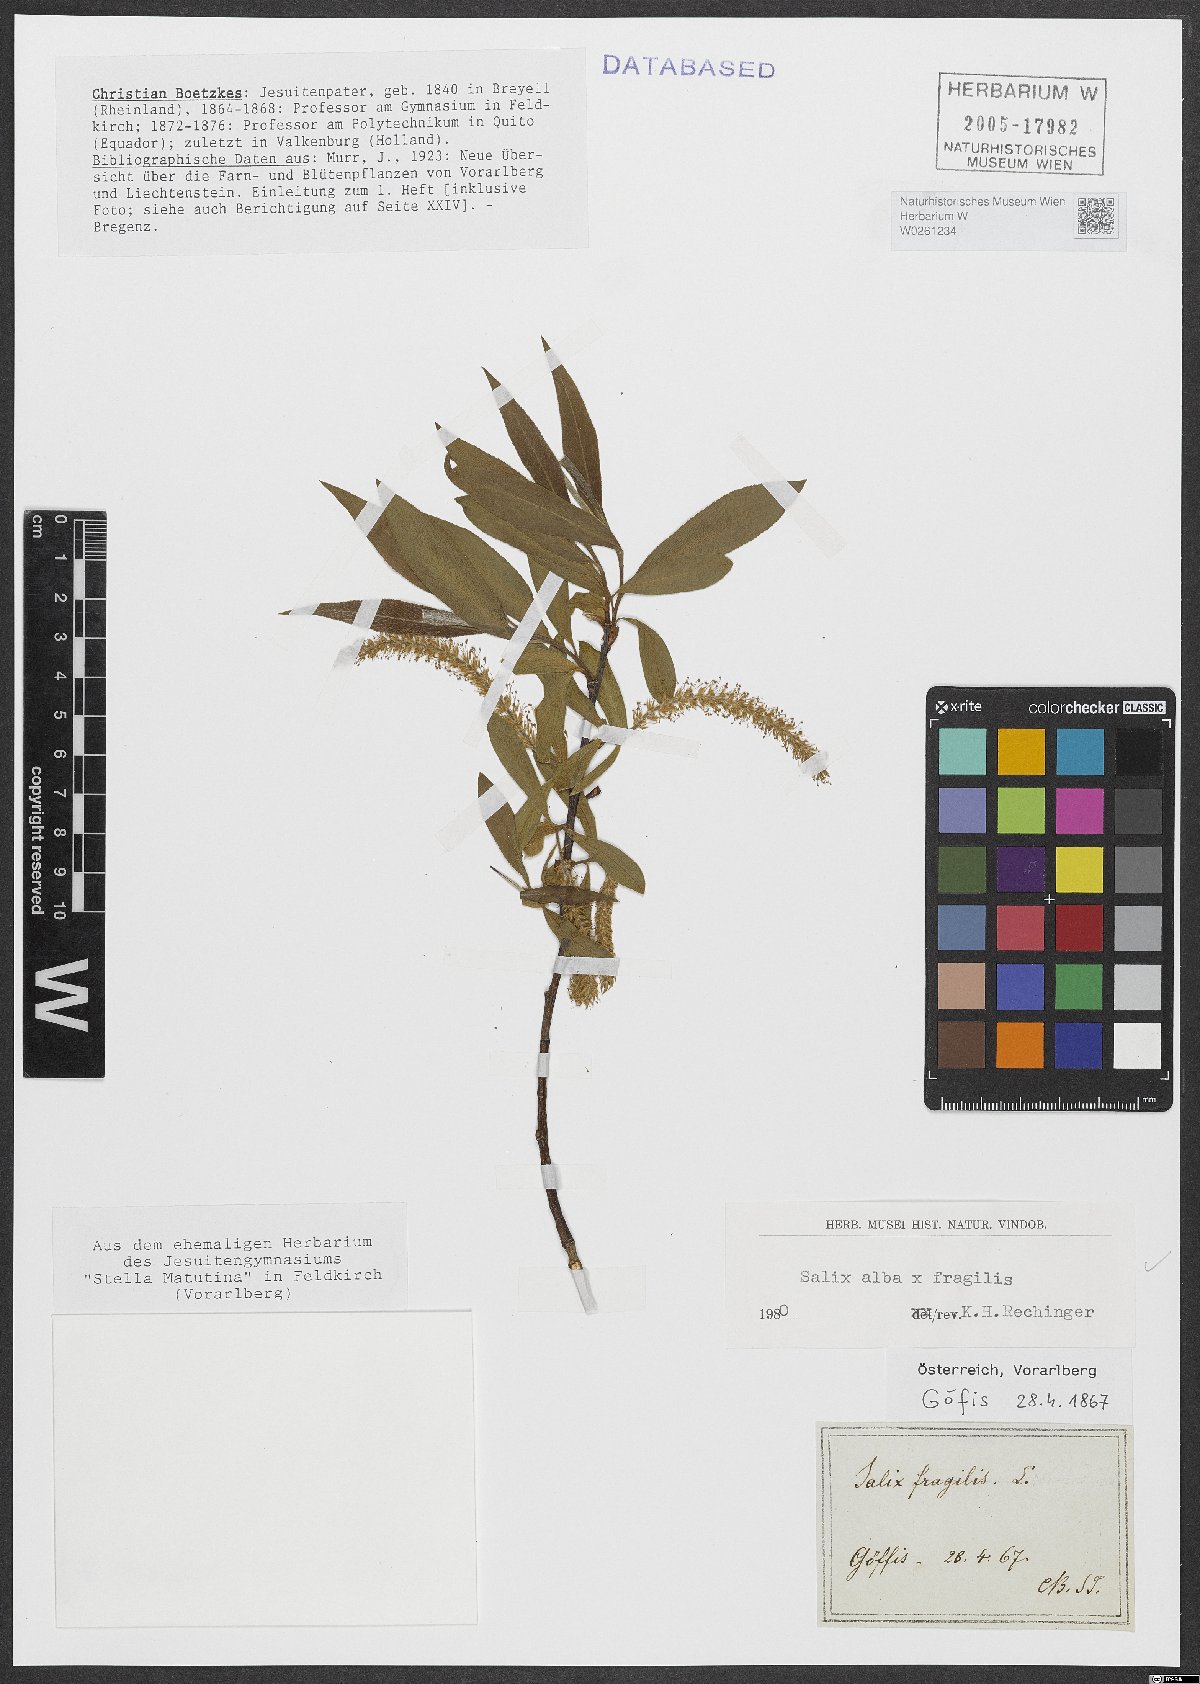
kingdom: Plantae
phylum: Tracheophyta
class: Magnoliopsida
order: Malpighiales
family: Salicaceae
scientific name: Salicaceae
